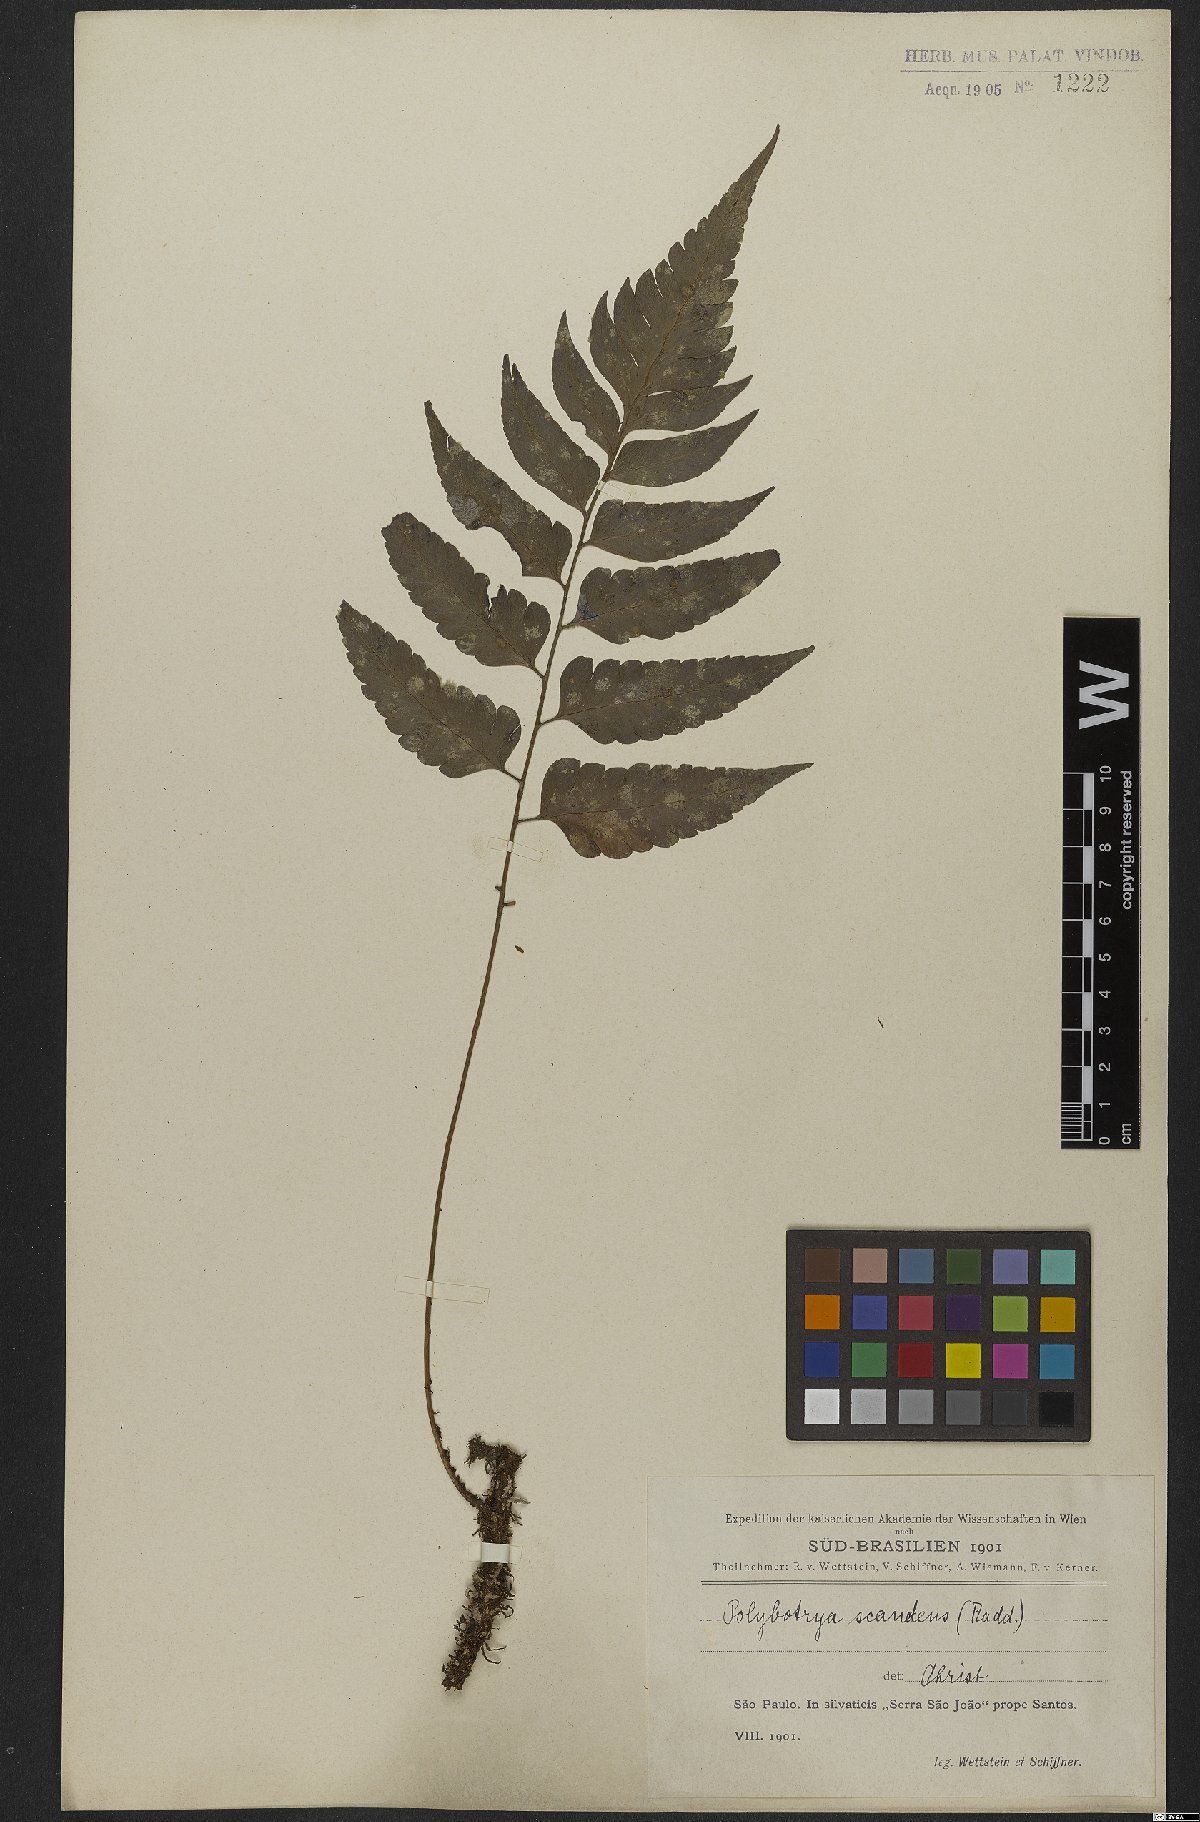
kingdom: Plantae
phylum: Tracheophyta
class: Polypodiopsida
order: Polypodiales
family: Dryopteridaceae
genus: Polybotrya
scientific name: Polybotrya semipinnata
